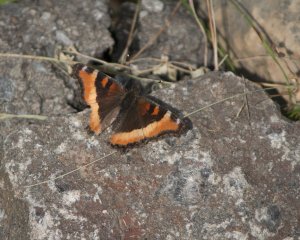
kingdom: Animalia
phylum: Arthropoda
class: Insecta
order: Lepidoptera
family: Nymphalidae
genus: Aglais
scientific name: Aglais milberti
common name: Milbert's Tortoiseshell
